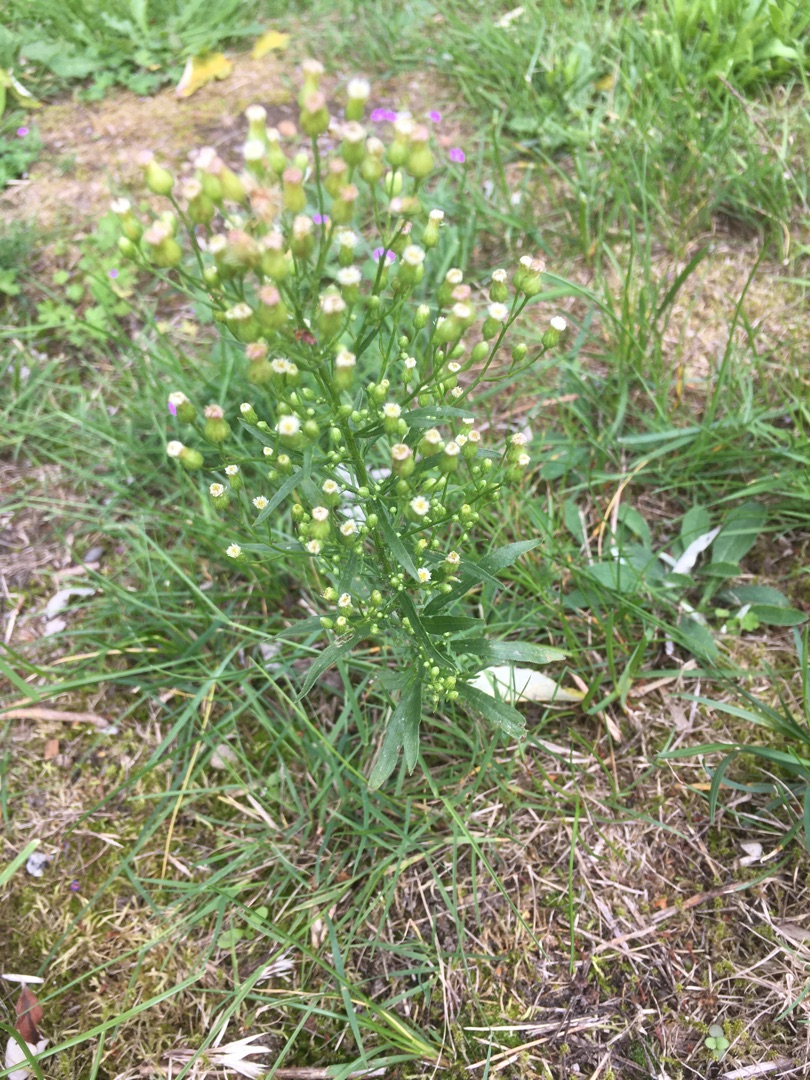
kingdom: Plantae
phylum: Tracheophyta
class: Magnoliopsida
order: Asterales
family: Asteraceae
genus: Erigeron
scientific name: Erigeron canadensis
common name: Kanadisk bakkestjerne
